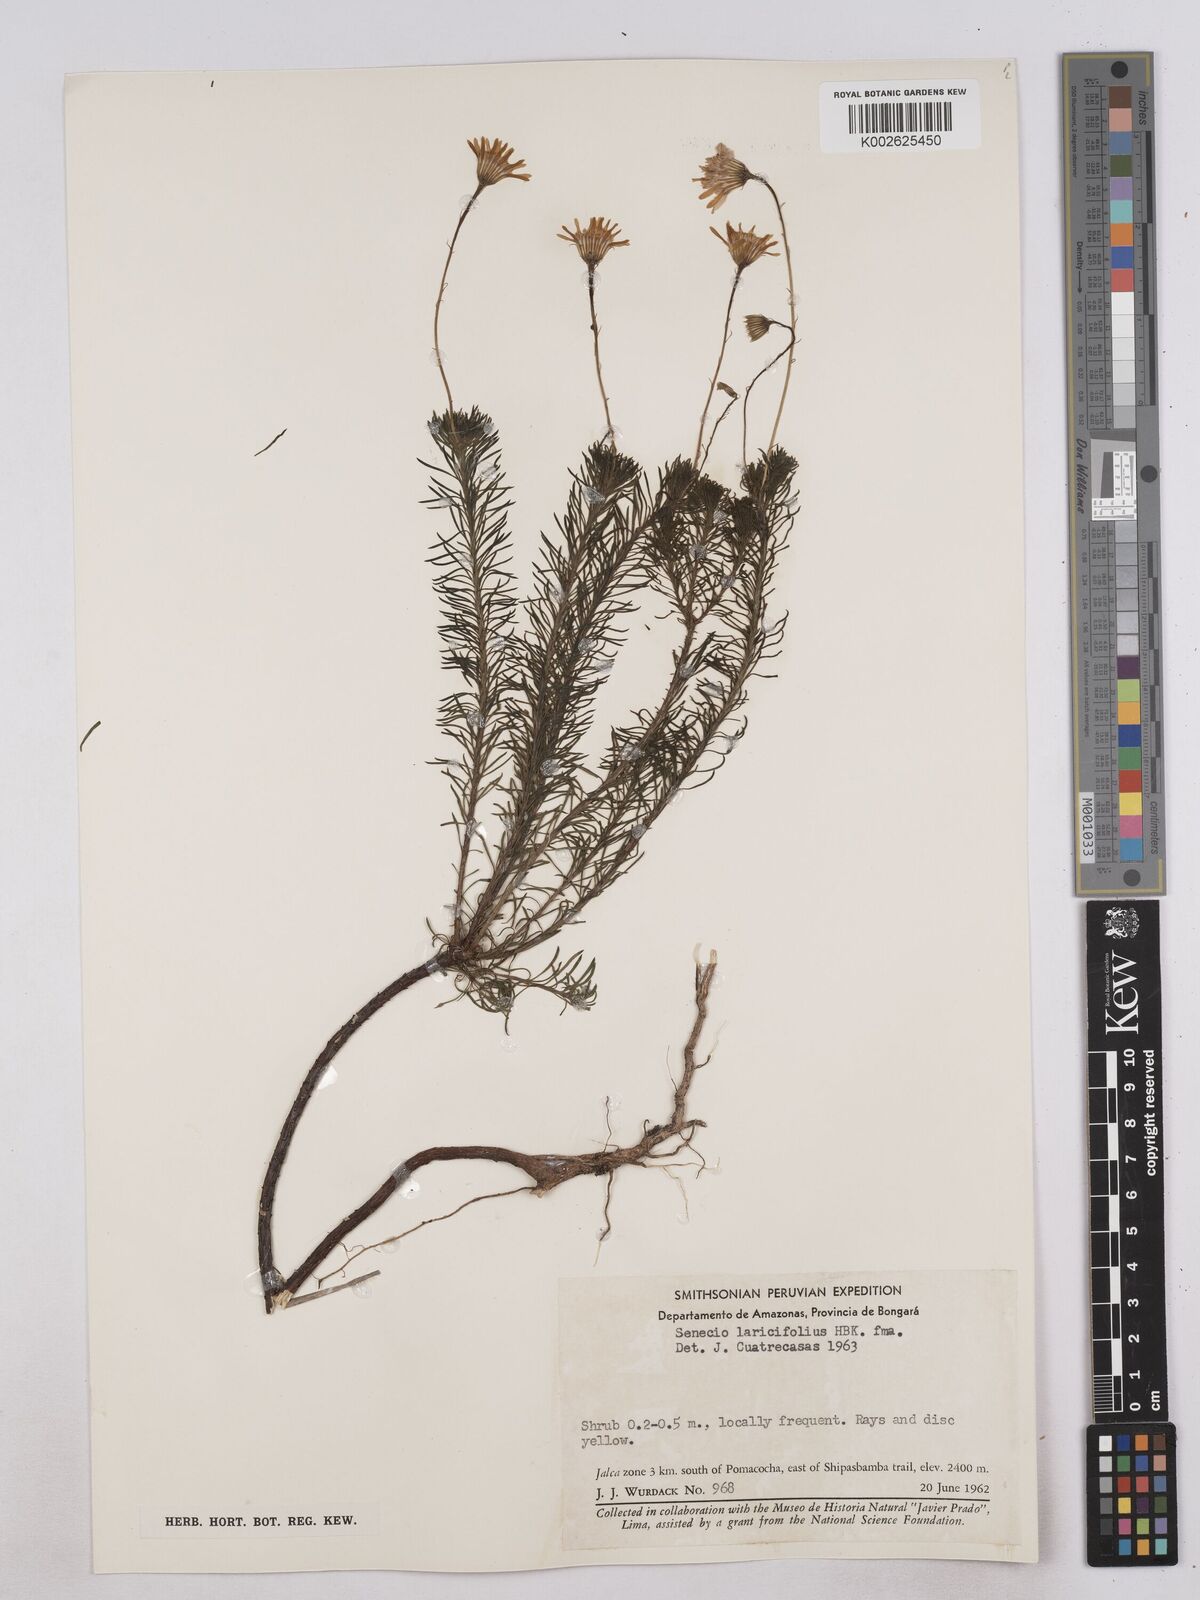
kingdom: Plantae
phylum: Tracheophyta
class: Magnoliopsida
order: Asterales
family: Asteraceae
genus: Senecio
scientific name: Senecio laricifolius
